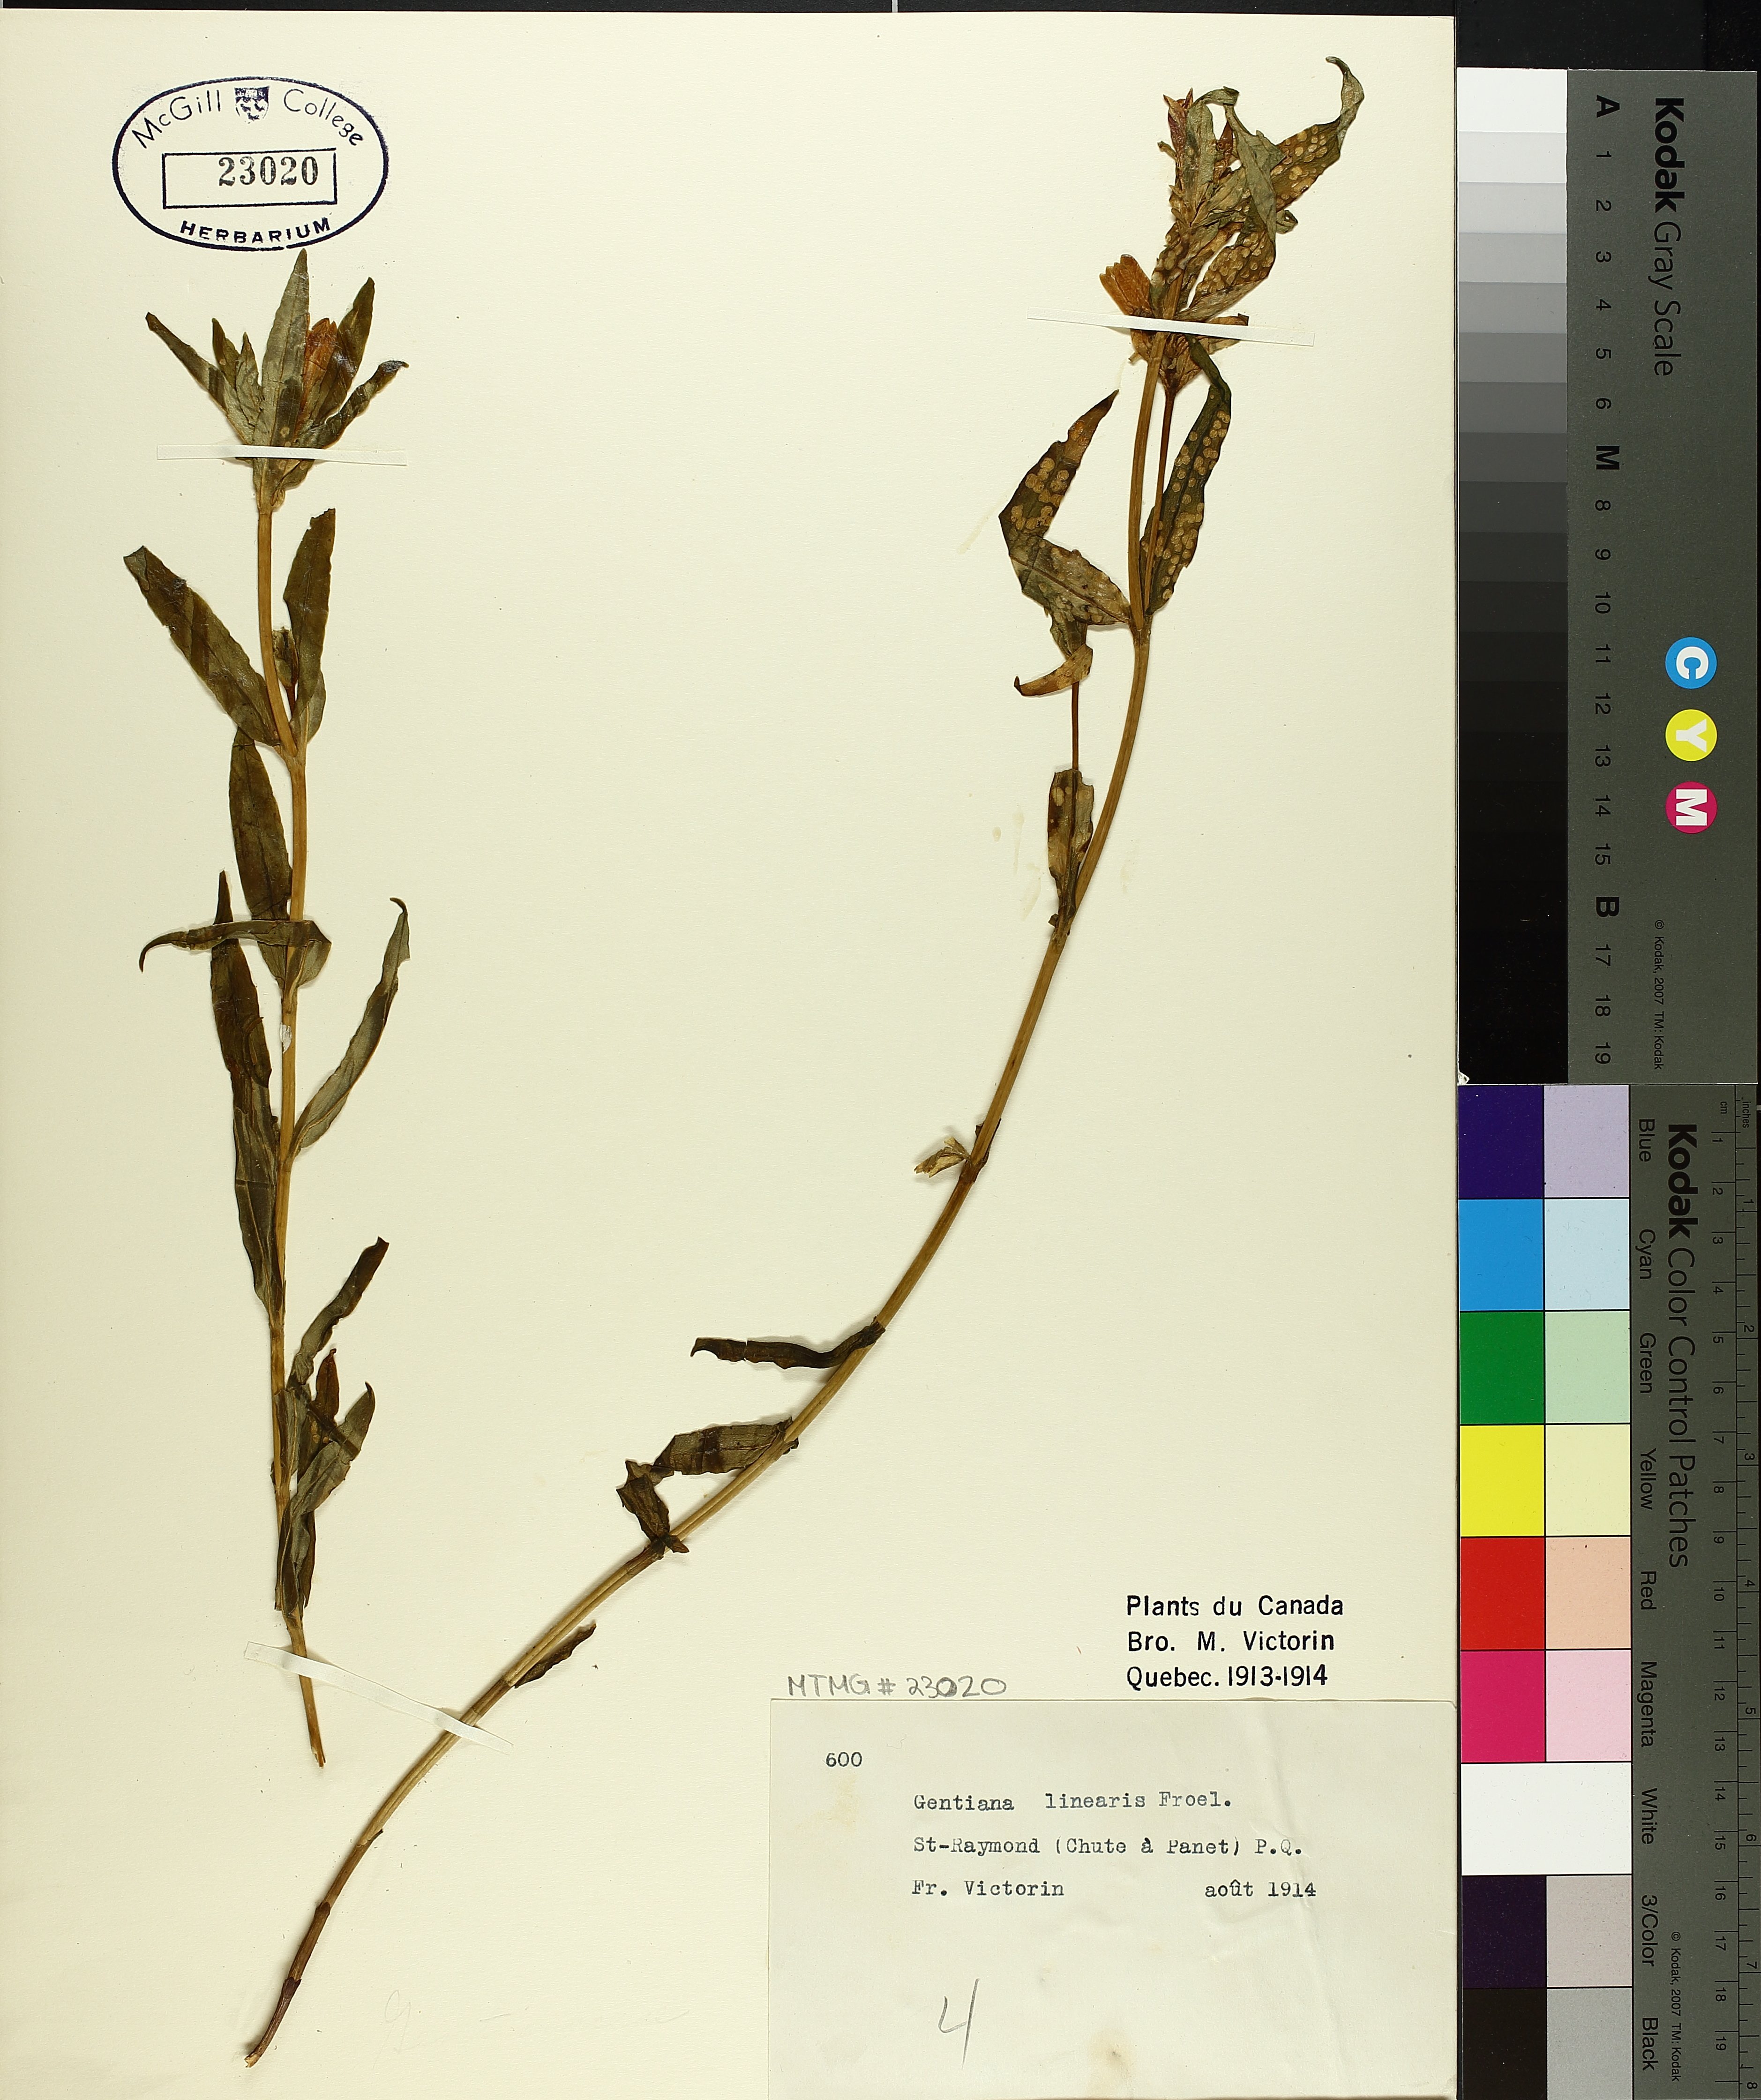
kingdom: Plantae
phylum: Tracheophyta
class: Magnoliopsida
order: Gentianales
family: Gentianaceae
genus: Gentiana
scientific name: Gentiana linearis
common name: Bastard gentian
